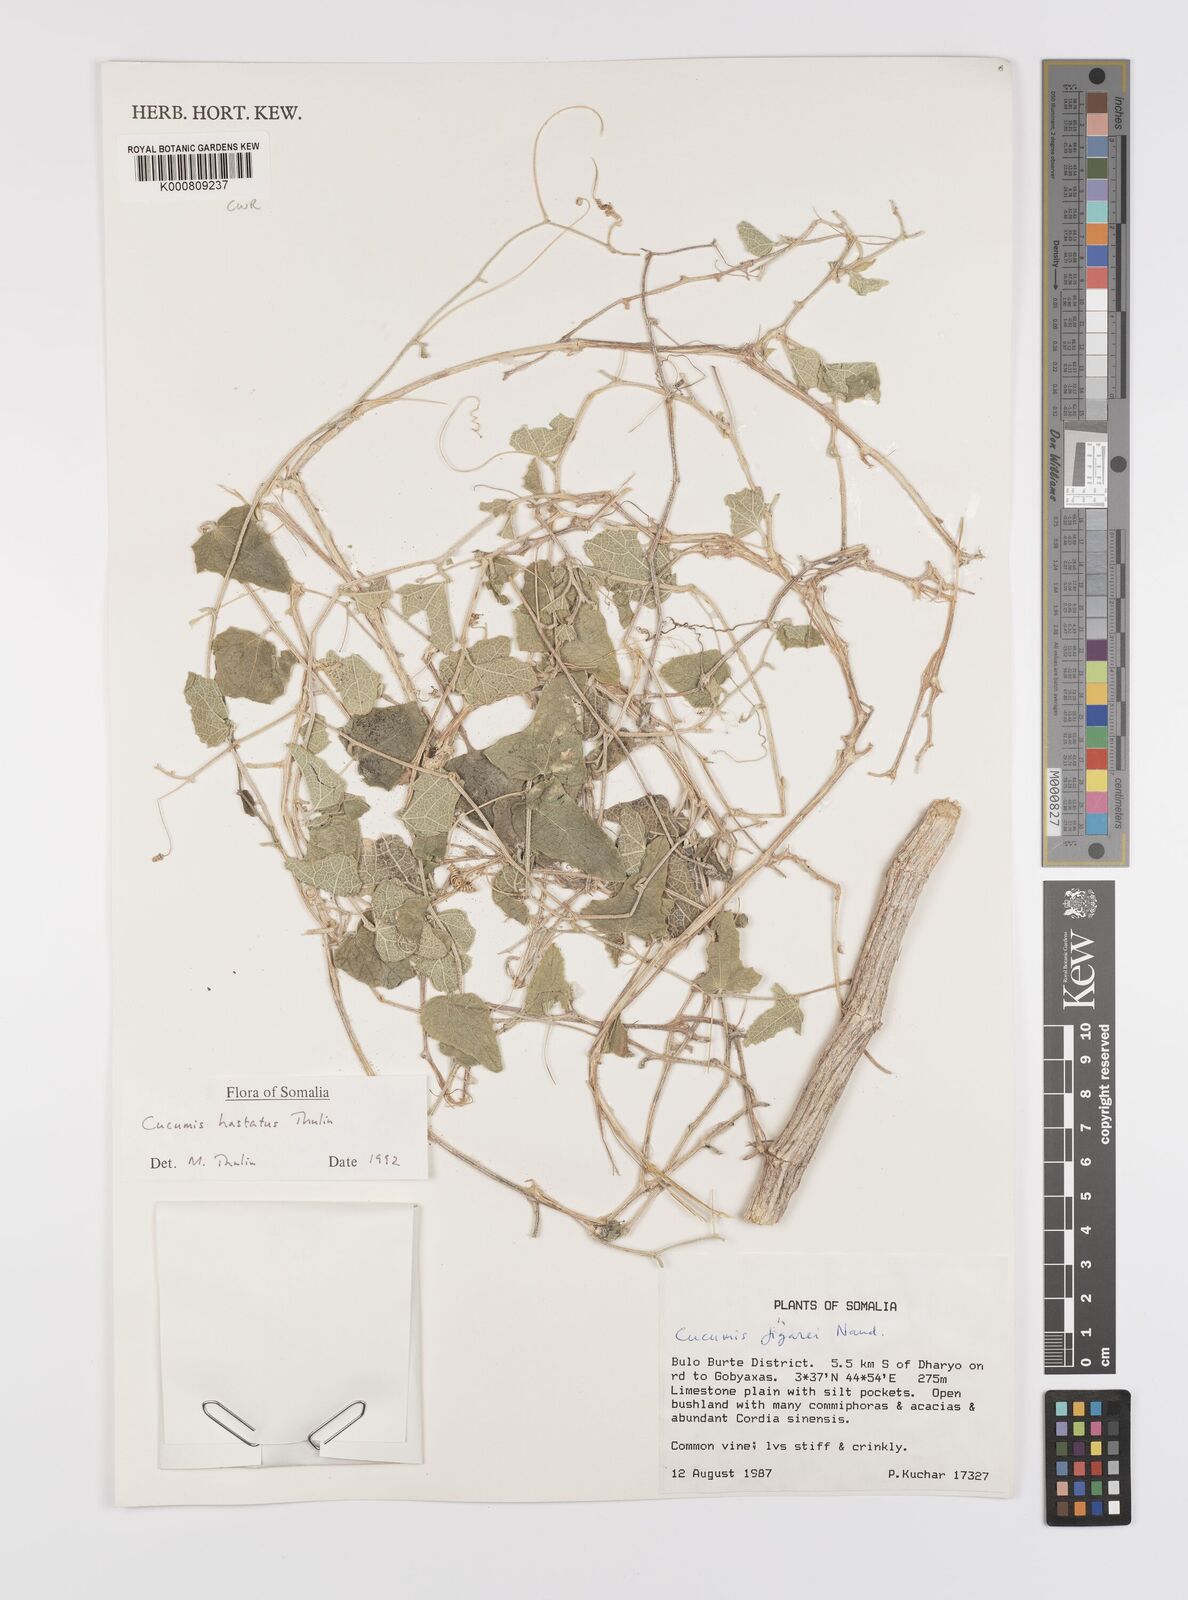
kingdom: Plantae
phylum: Tracheophyta
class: Magnoliopsida
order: Cucurbitales
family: Cucurbitaceae
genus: Cucumis
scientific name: Cucumis
